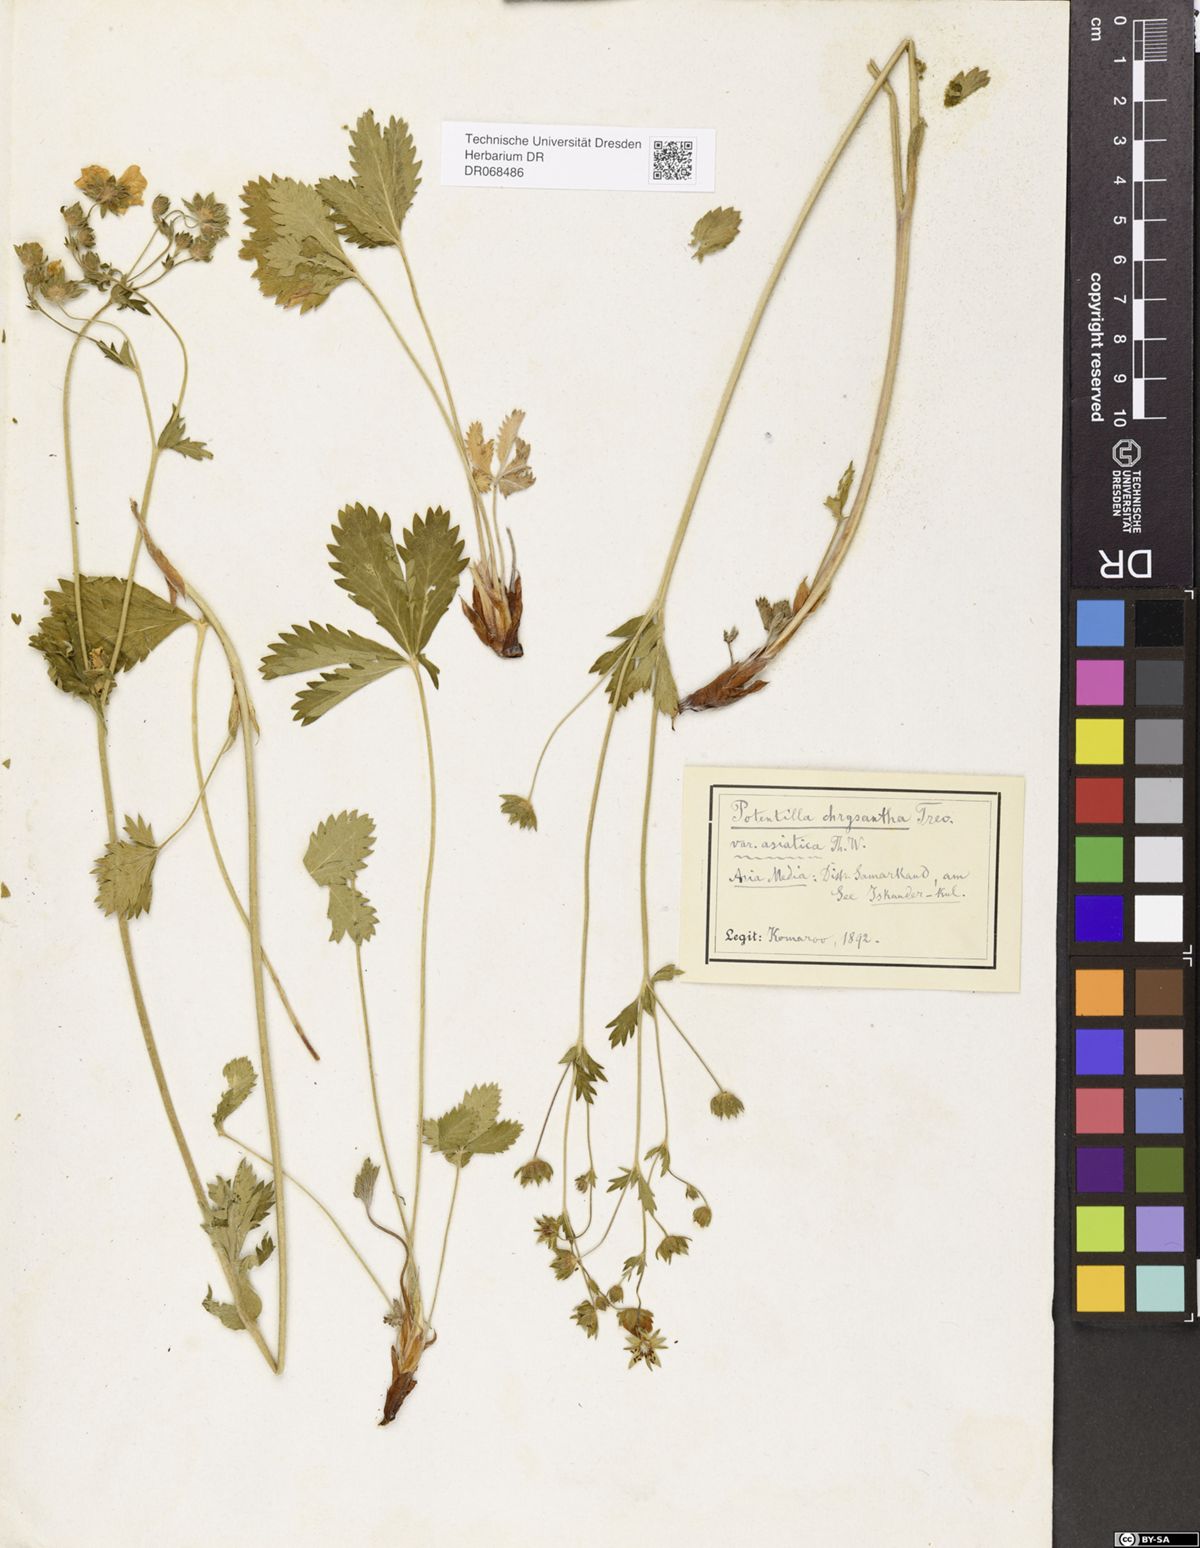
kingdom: Plantae
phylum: Tracheophyta
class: Magnoliopsida
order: Rosales
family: Rosaceae
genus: Potentilla
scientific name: Potentilla asiatica
